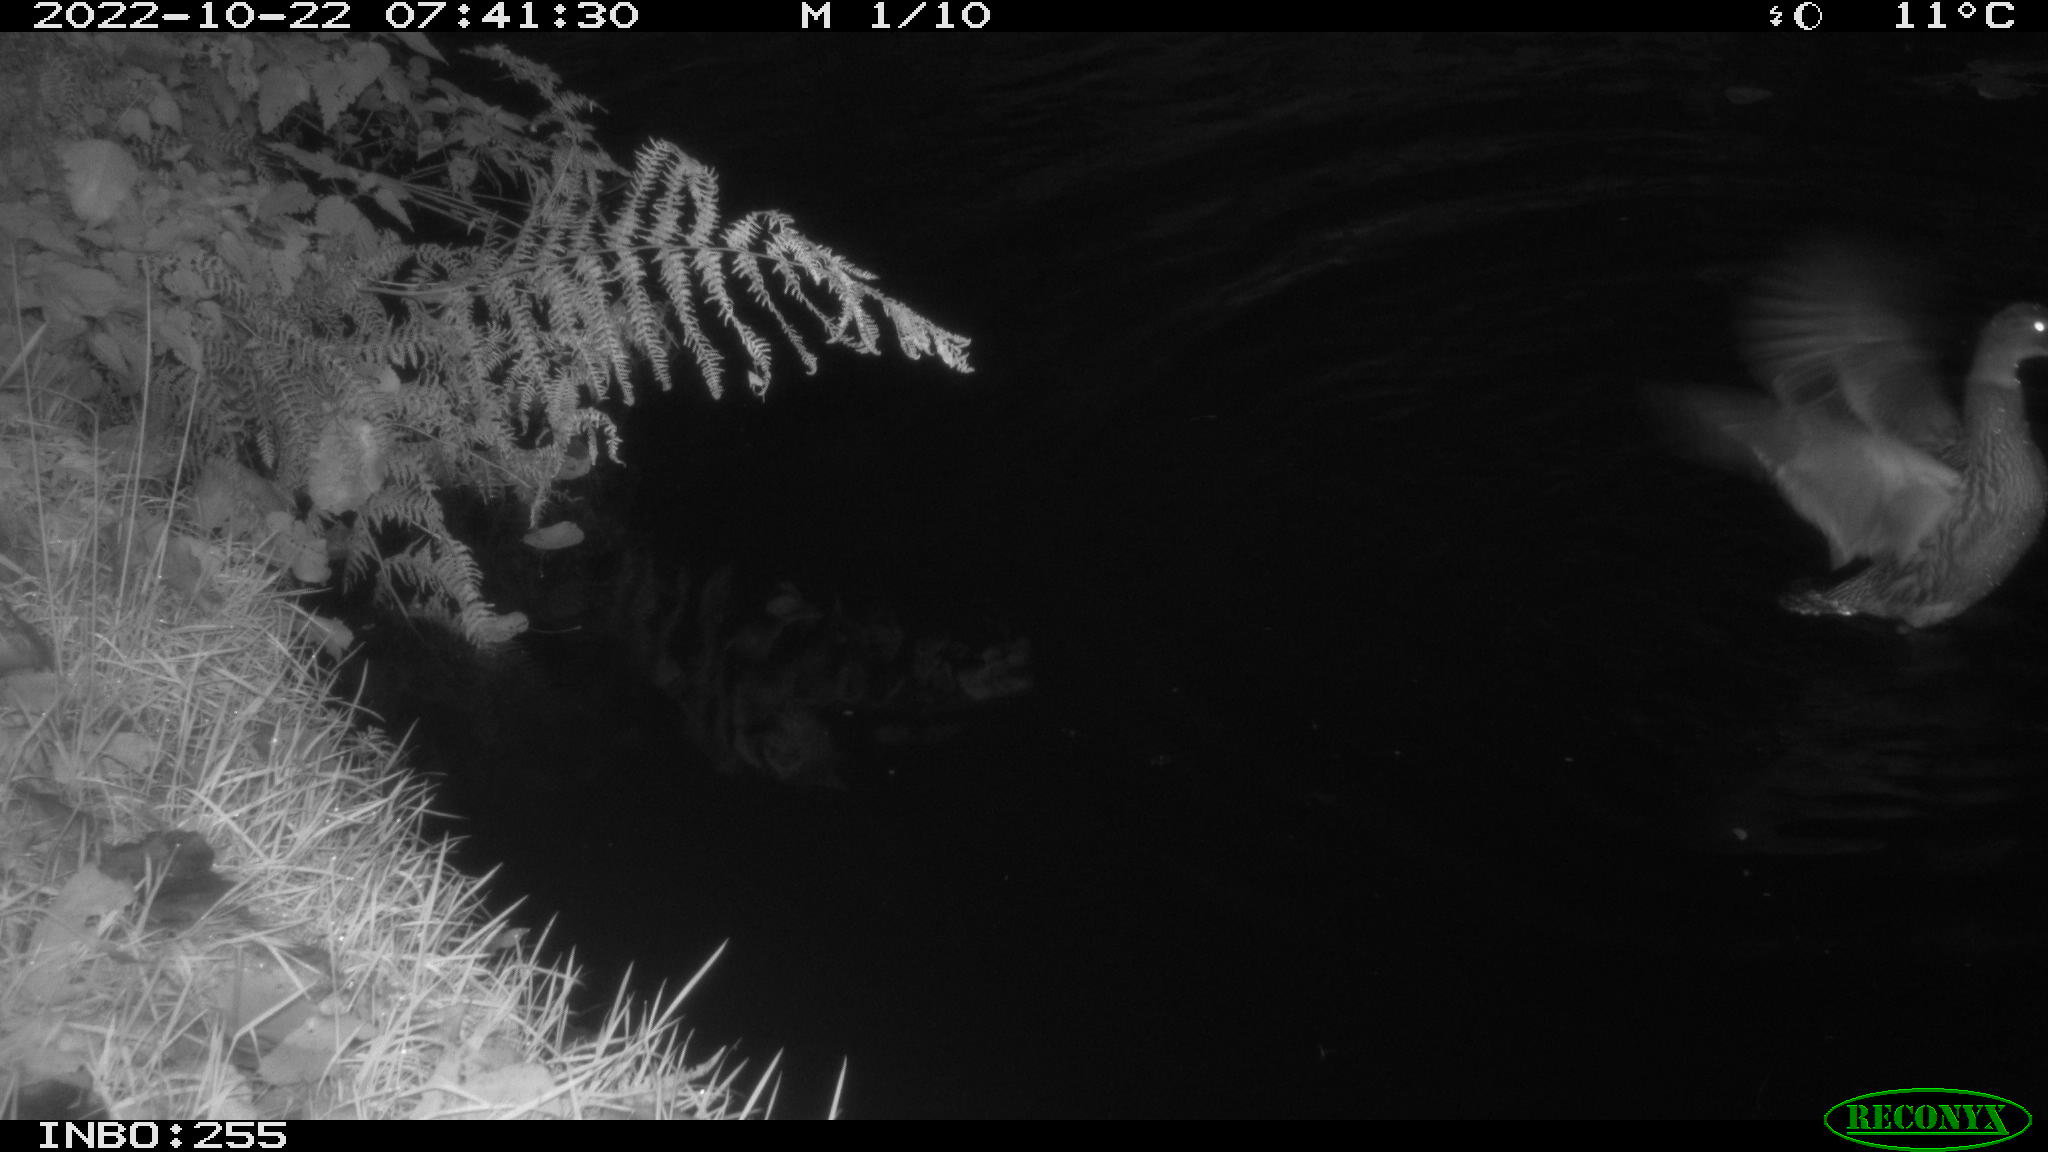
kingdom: Animalia
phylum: Chordata
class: Aves
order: Anseriformes
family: Anatidae
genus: Anas
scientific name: Anas
